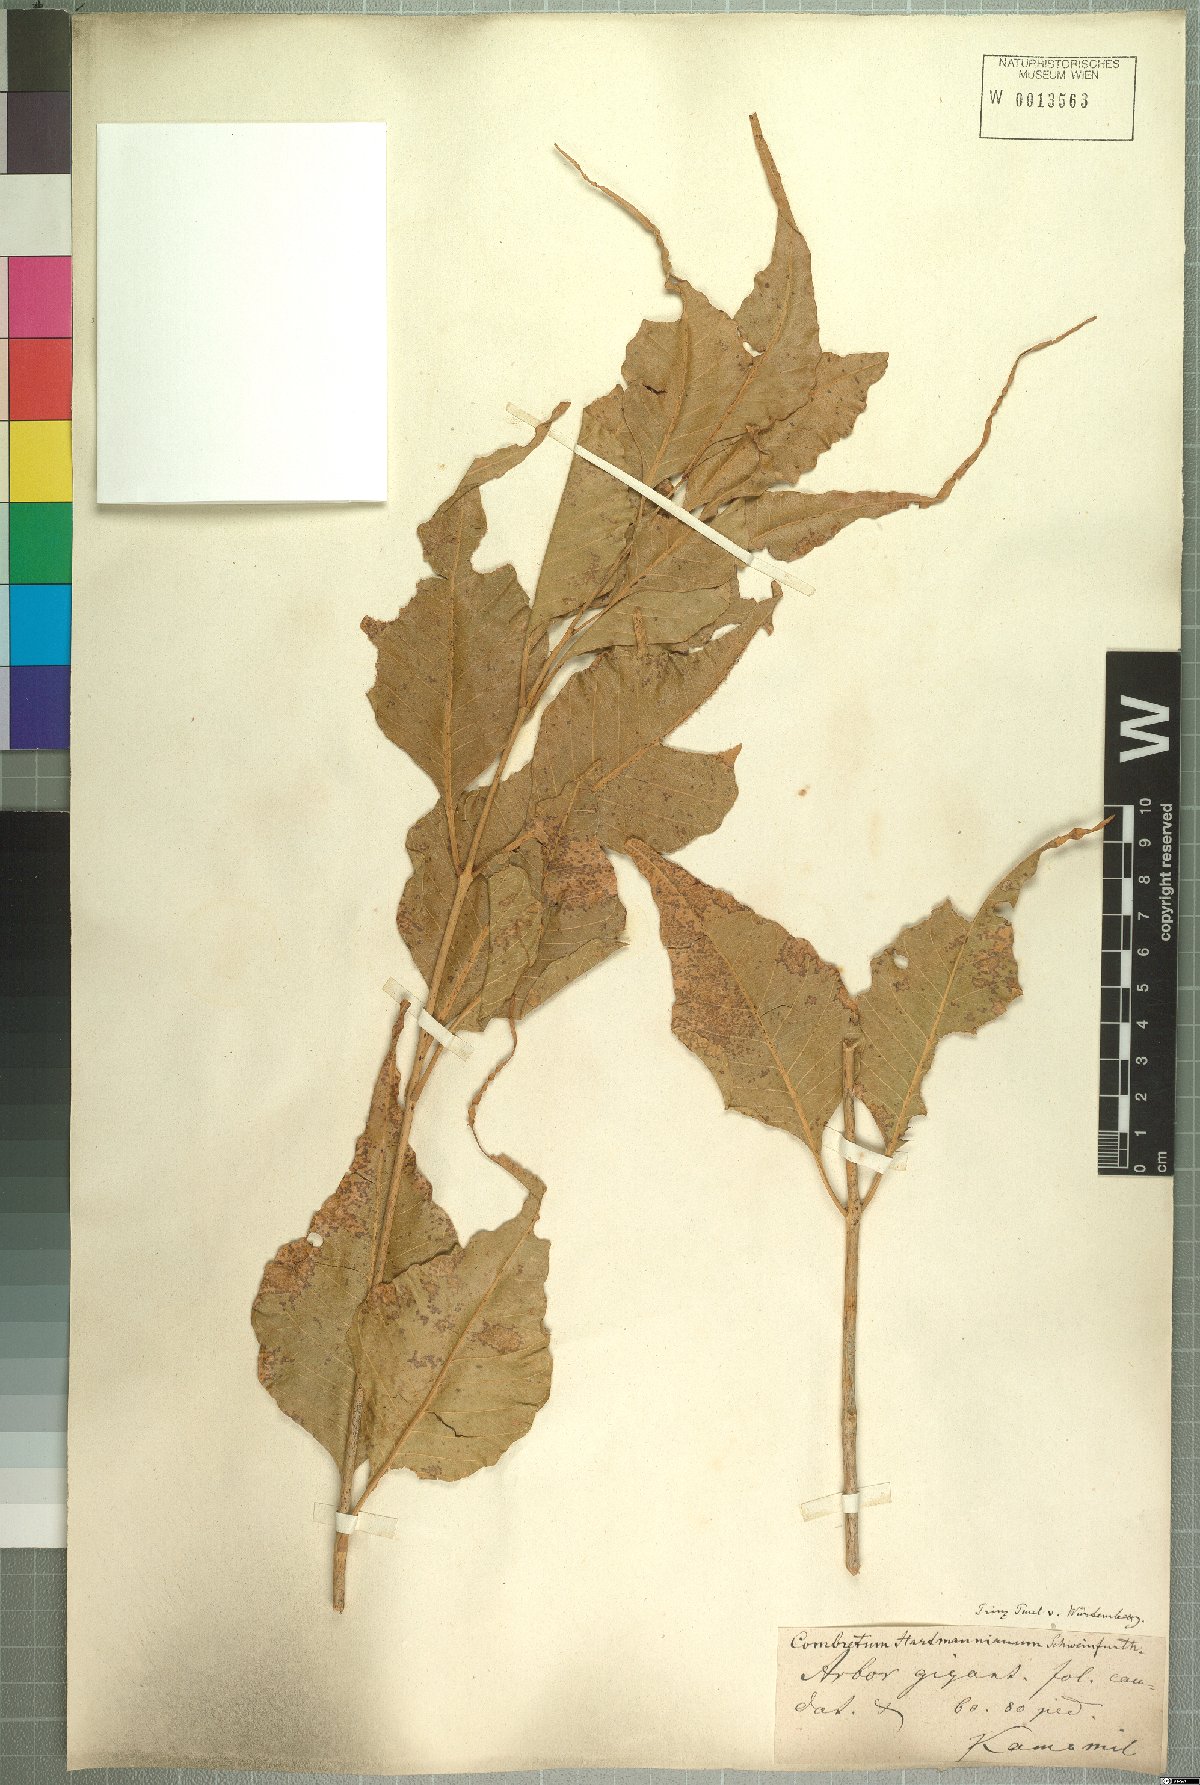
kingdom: Plantae
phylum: Tracheophyta
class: Magnoliopsida
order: Myrtales
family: Combretaceae
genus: Combretum
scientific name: Combretum hartmannianum
